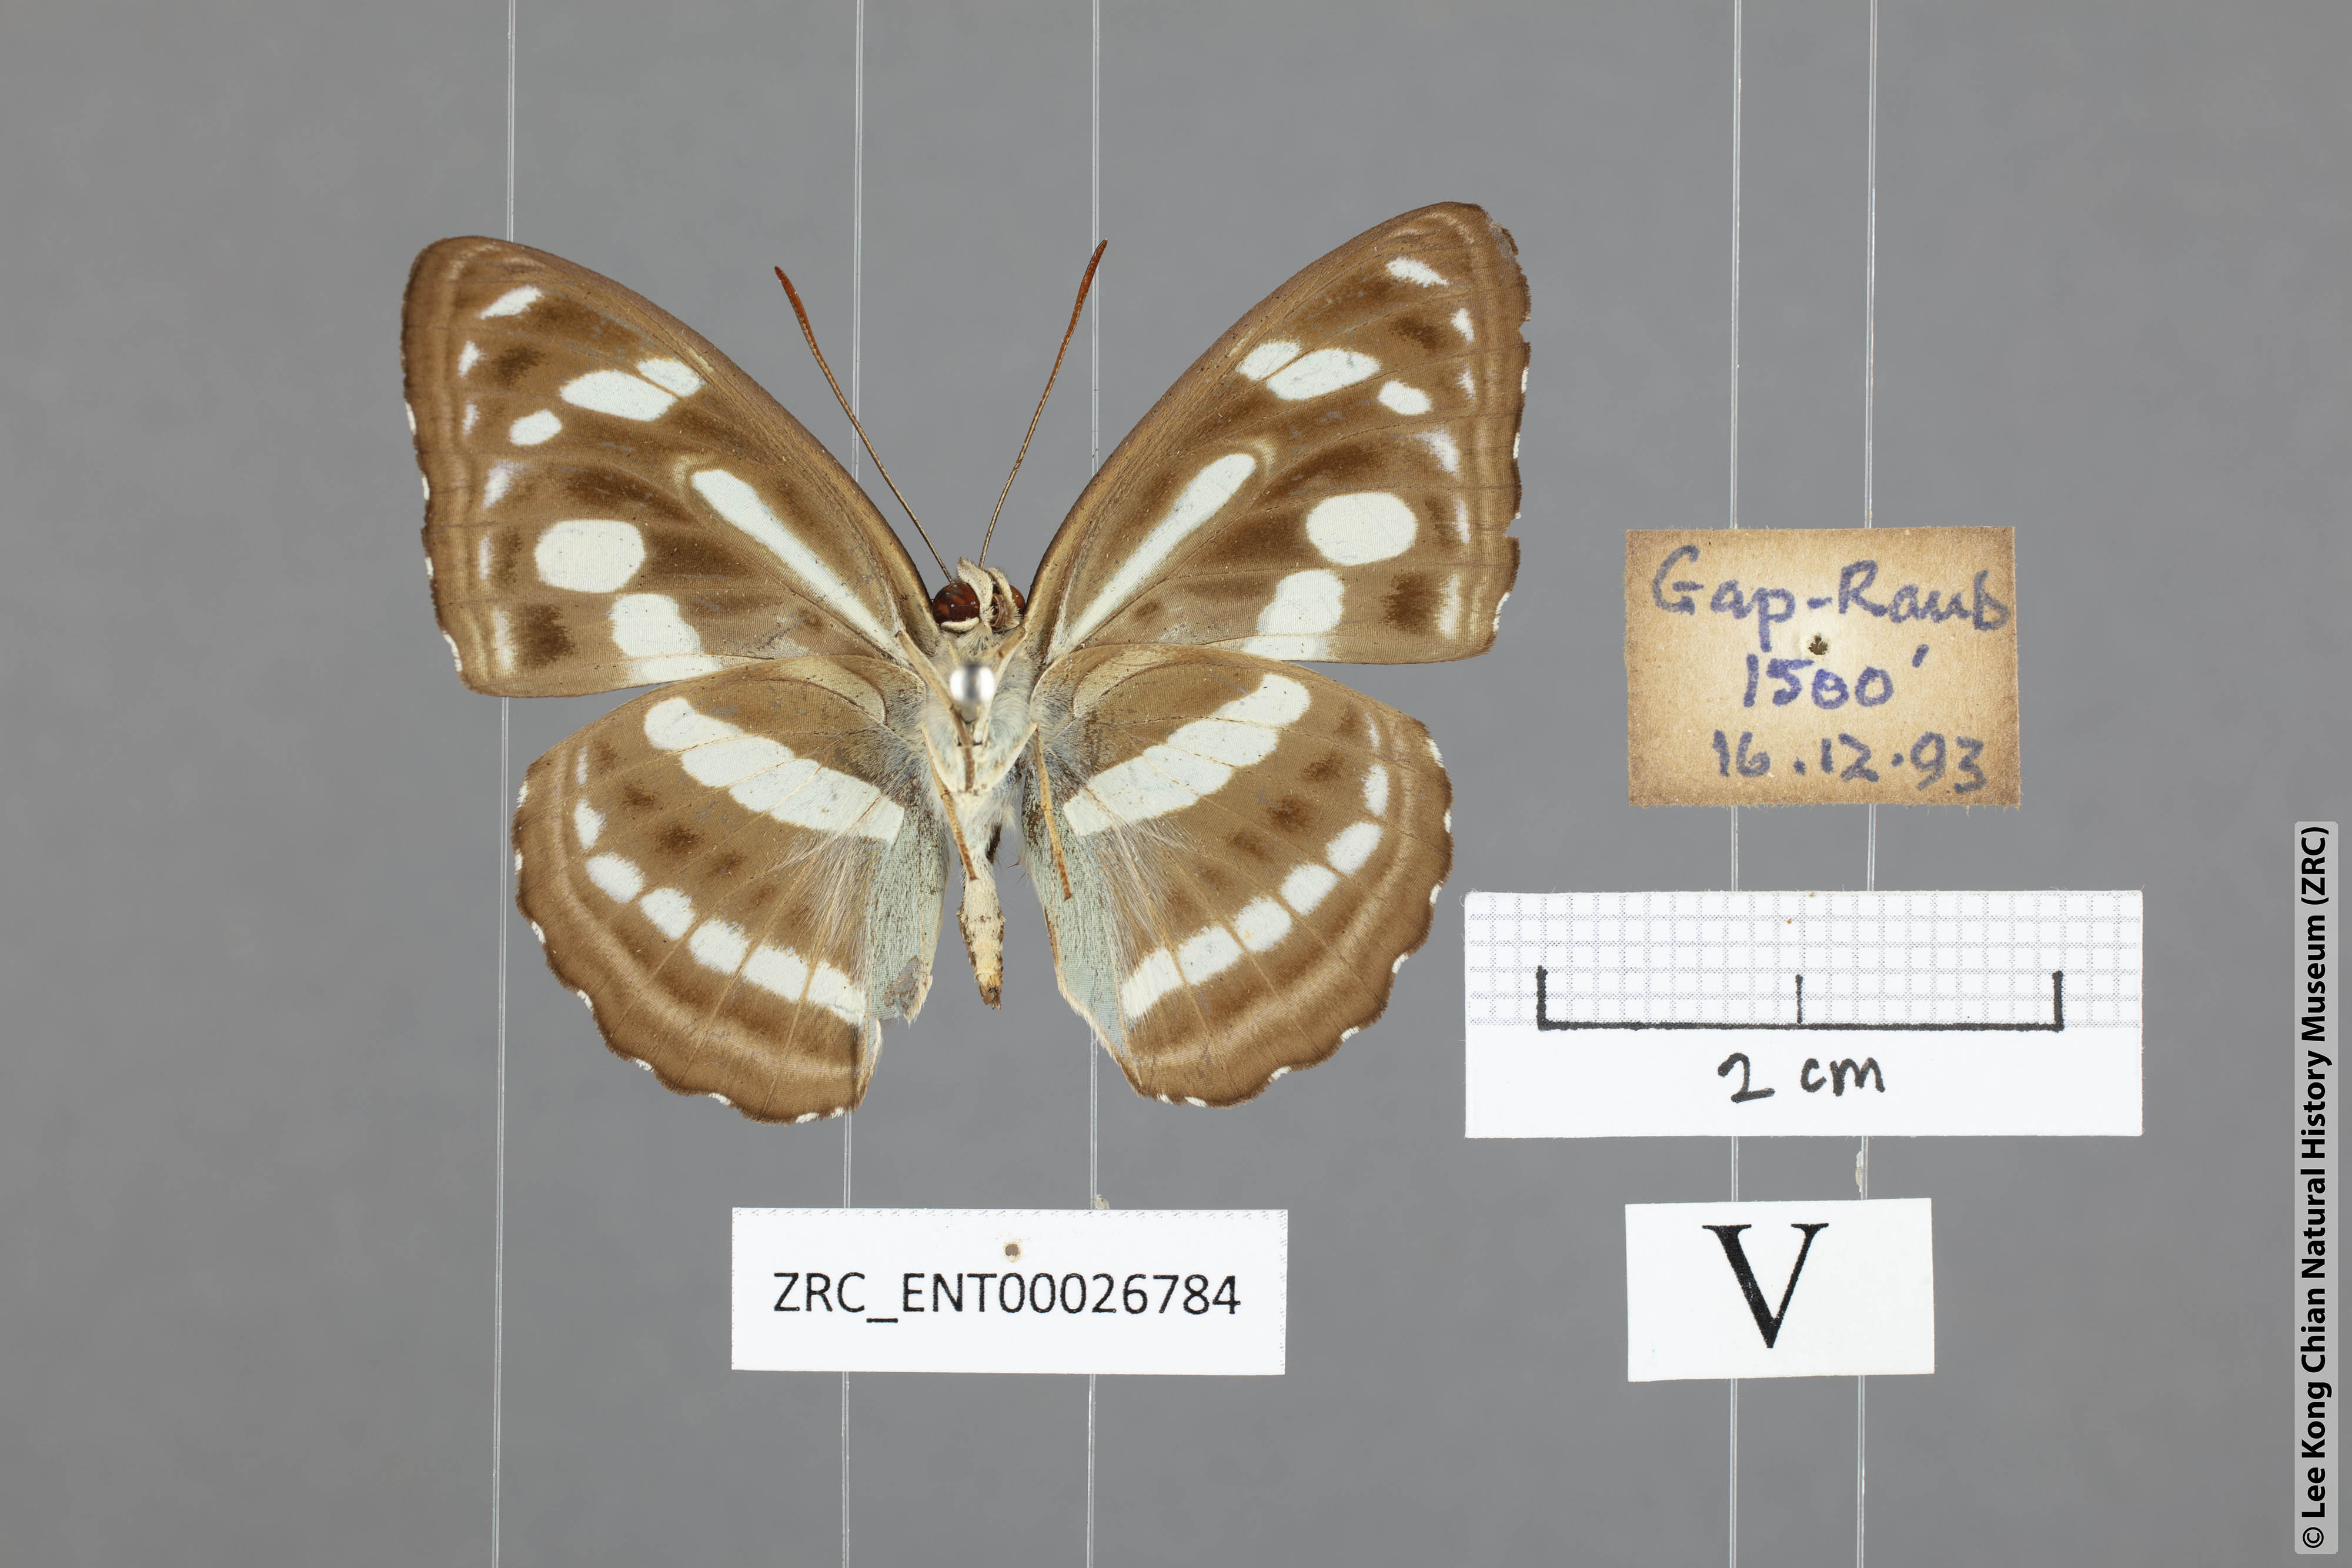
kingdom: Animalia
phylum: Arthropoda
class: Insecta
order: Lepidoptera
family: Nymphalidae
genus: Parathyma
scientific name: Parathyma pravara
